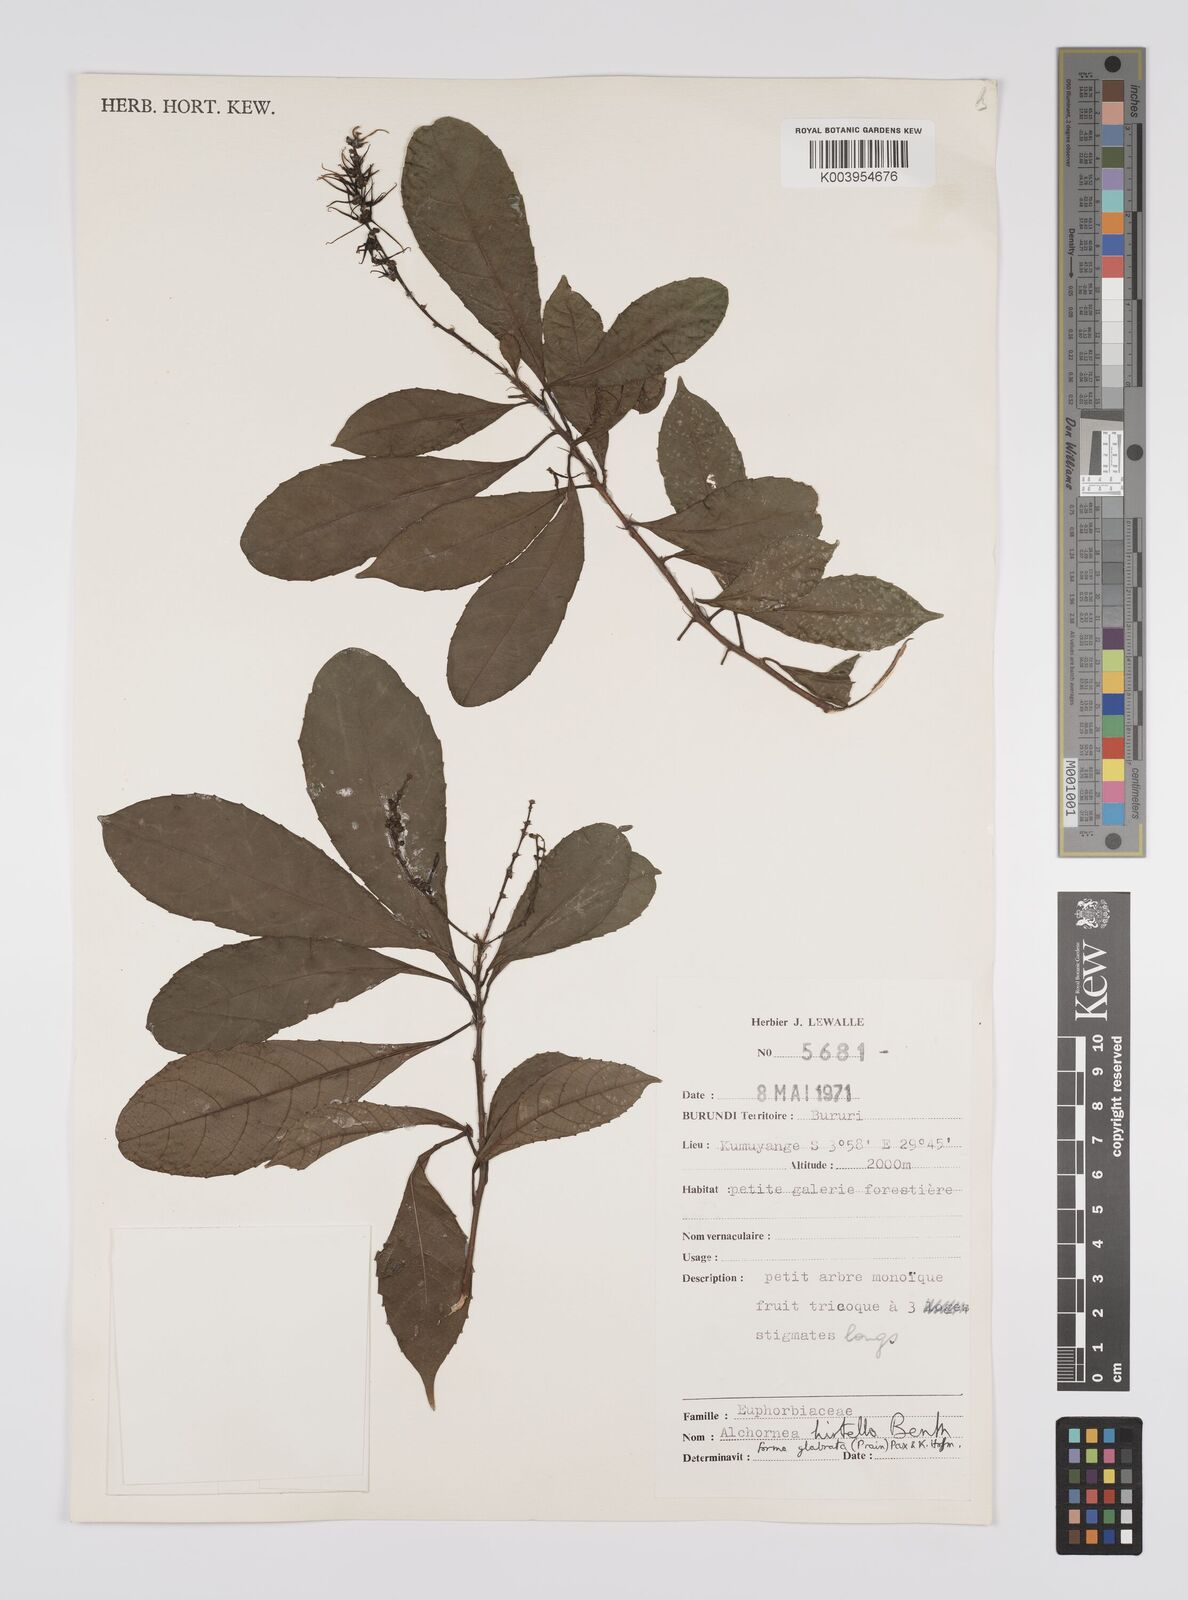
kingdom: Plantae
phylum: Tracheophyta
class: Magnoliopsida
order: Malpighiales
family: Euphorbiaceae
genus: Alchornea
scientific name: Alchornea hirtella
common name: Forest bead-string
